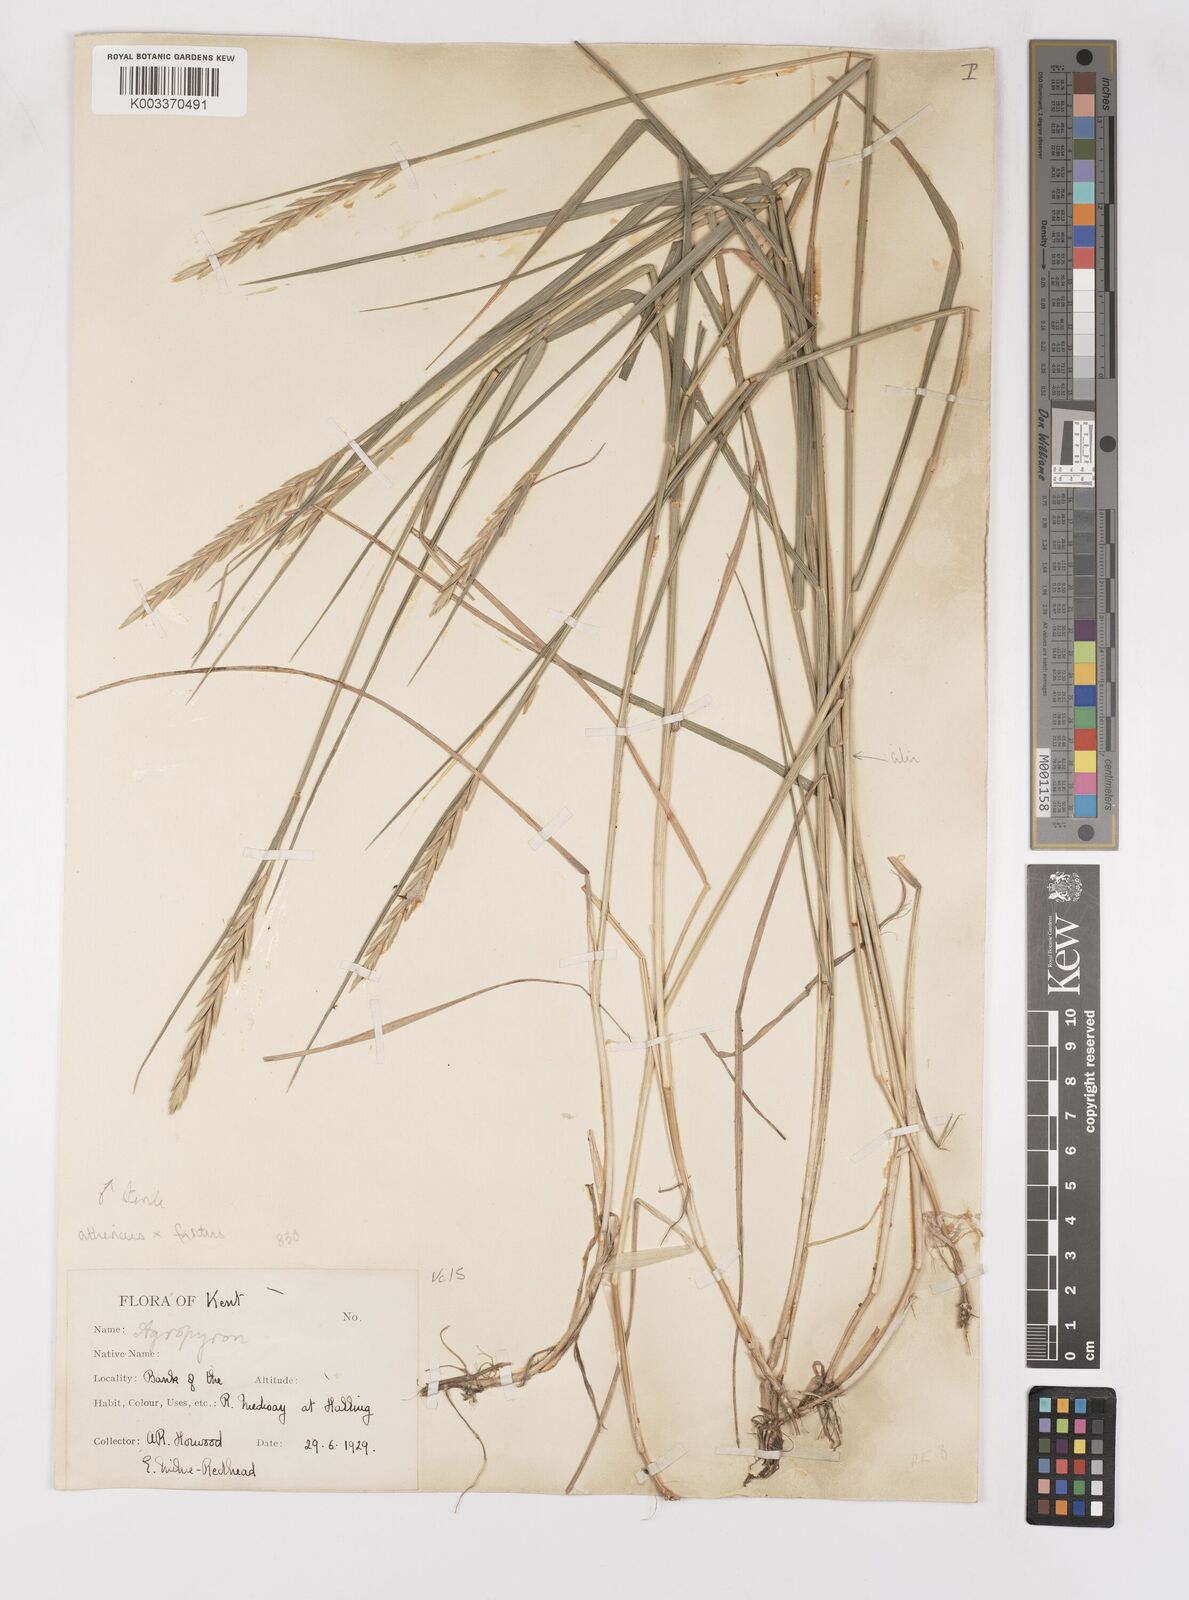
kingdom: Plantae
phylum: Tracheophyta
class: Liliopsida
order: Poales
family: Poaceae
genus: Thinoelymus
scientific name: Thinoelymus obtusiusculus
